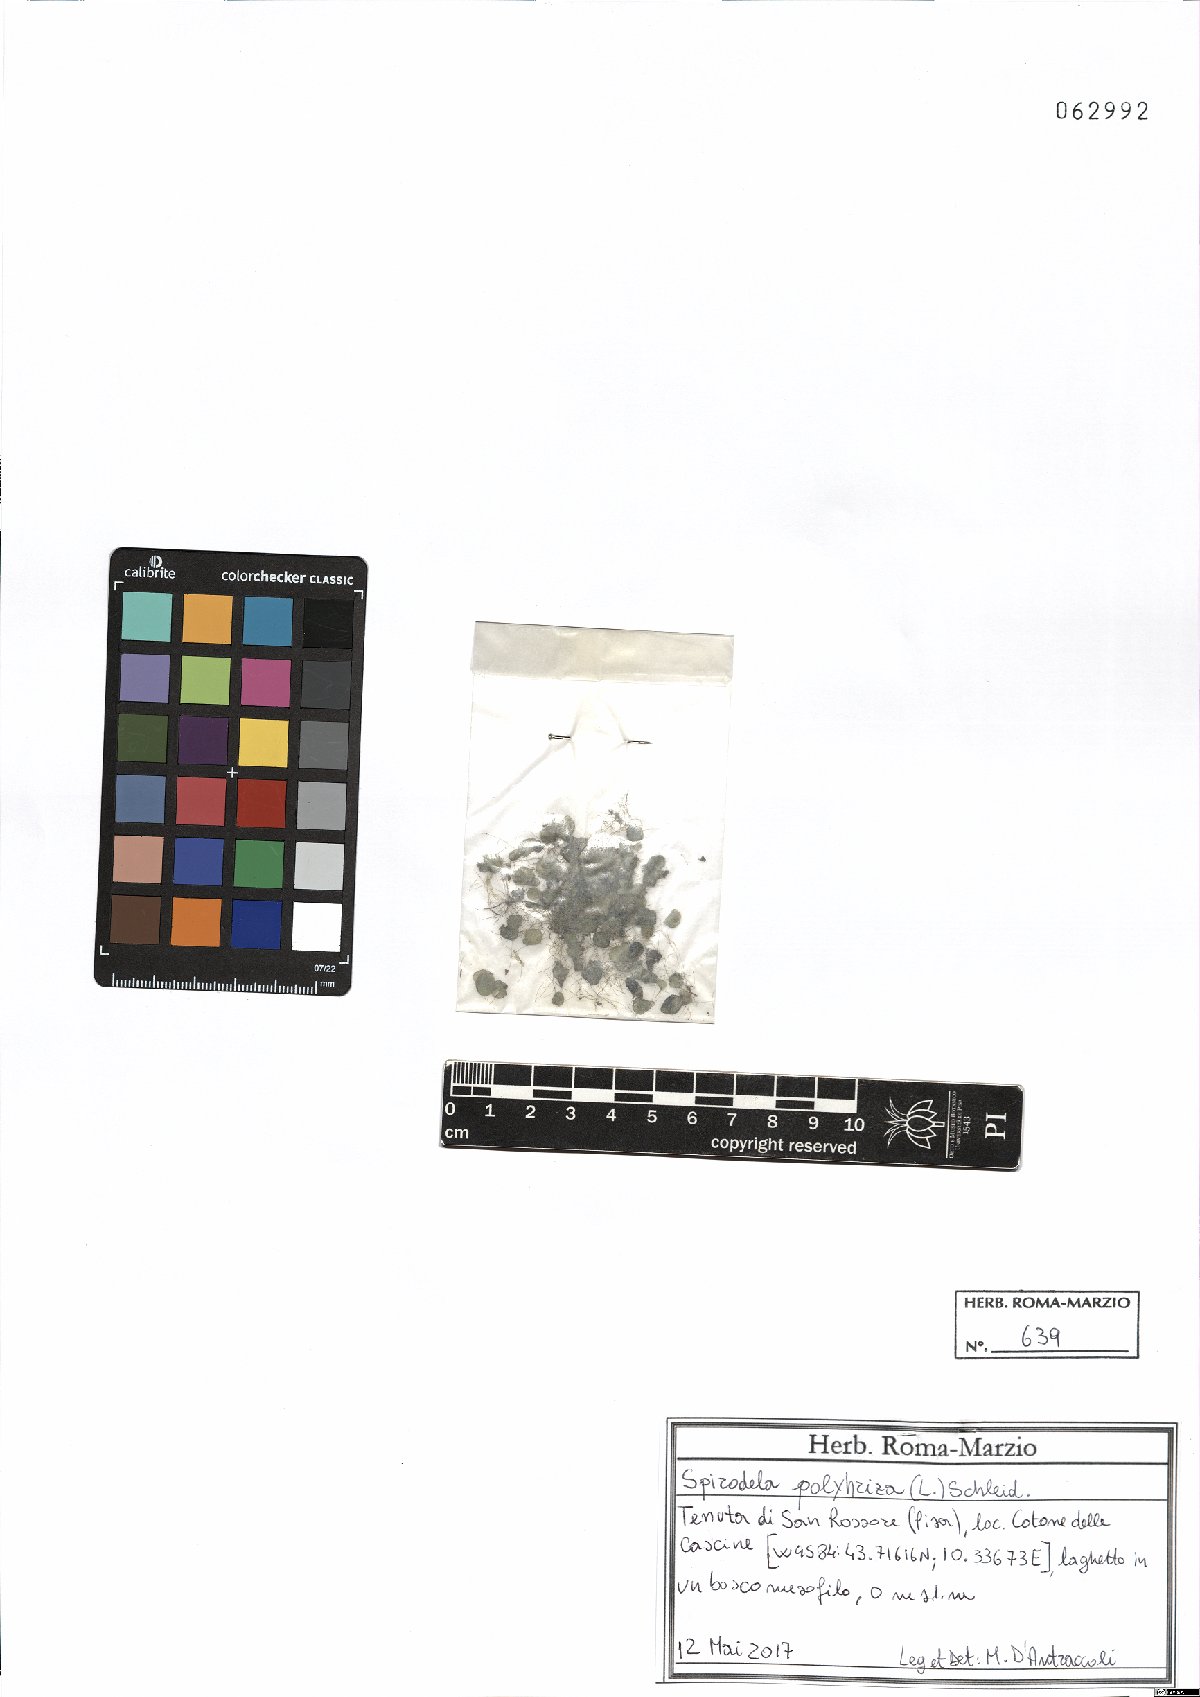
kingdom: Plantae
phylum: Tracheophyta
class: Liliopsida
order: Alismatales
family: Araceae
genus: Spirodela
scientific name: Spirodela polyrhiza
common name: Great duckweed
